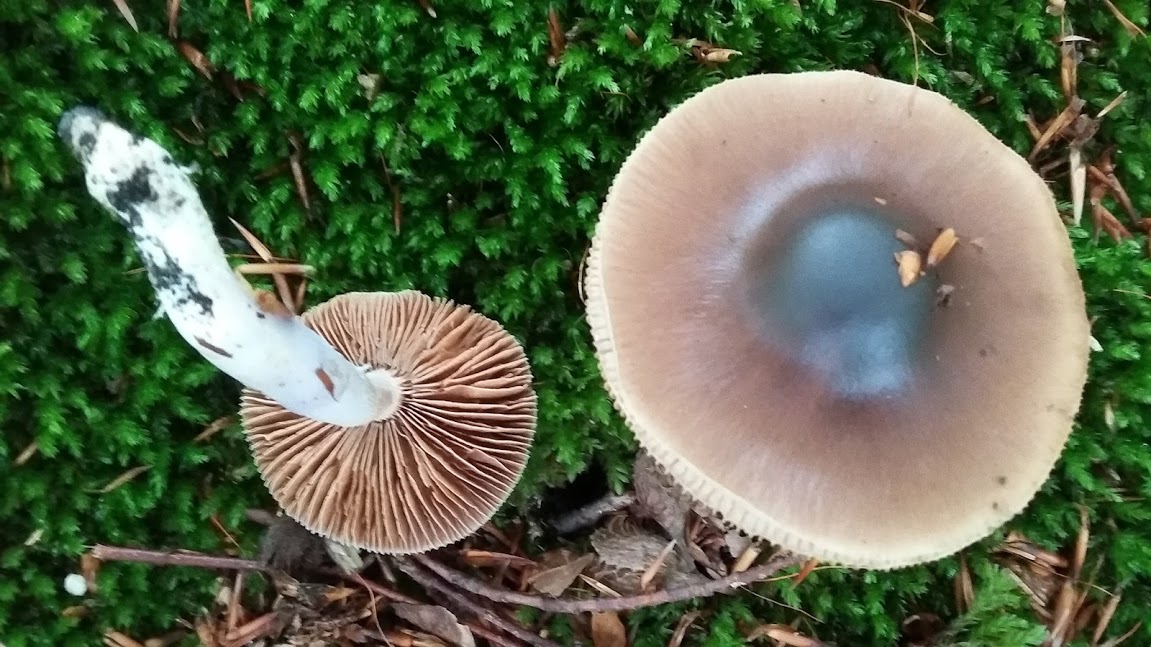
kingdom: Fungi
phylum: Basidiomycota
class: Agaricomycetes
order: Agaricales
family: Cortinariaceae
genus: Cortinarius
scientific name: Cortinarius
